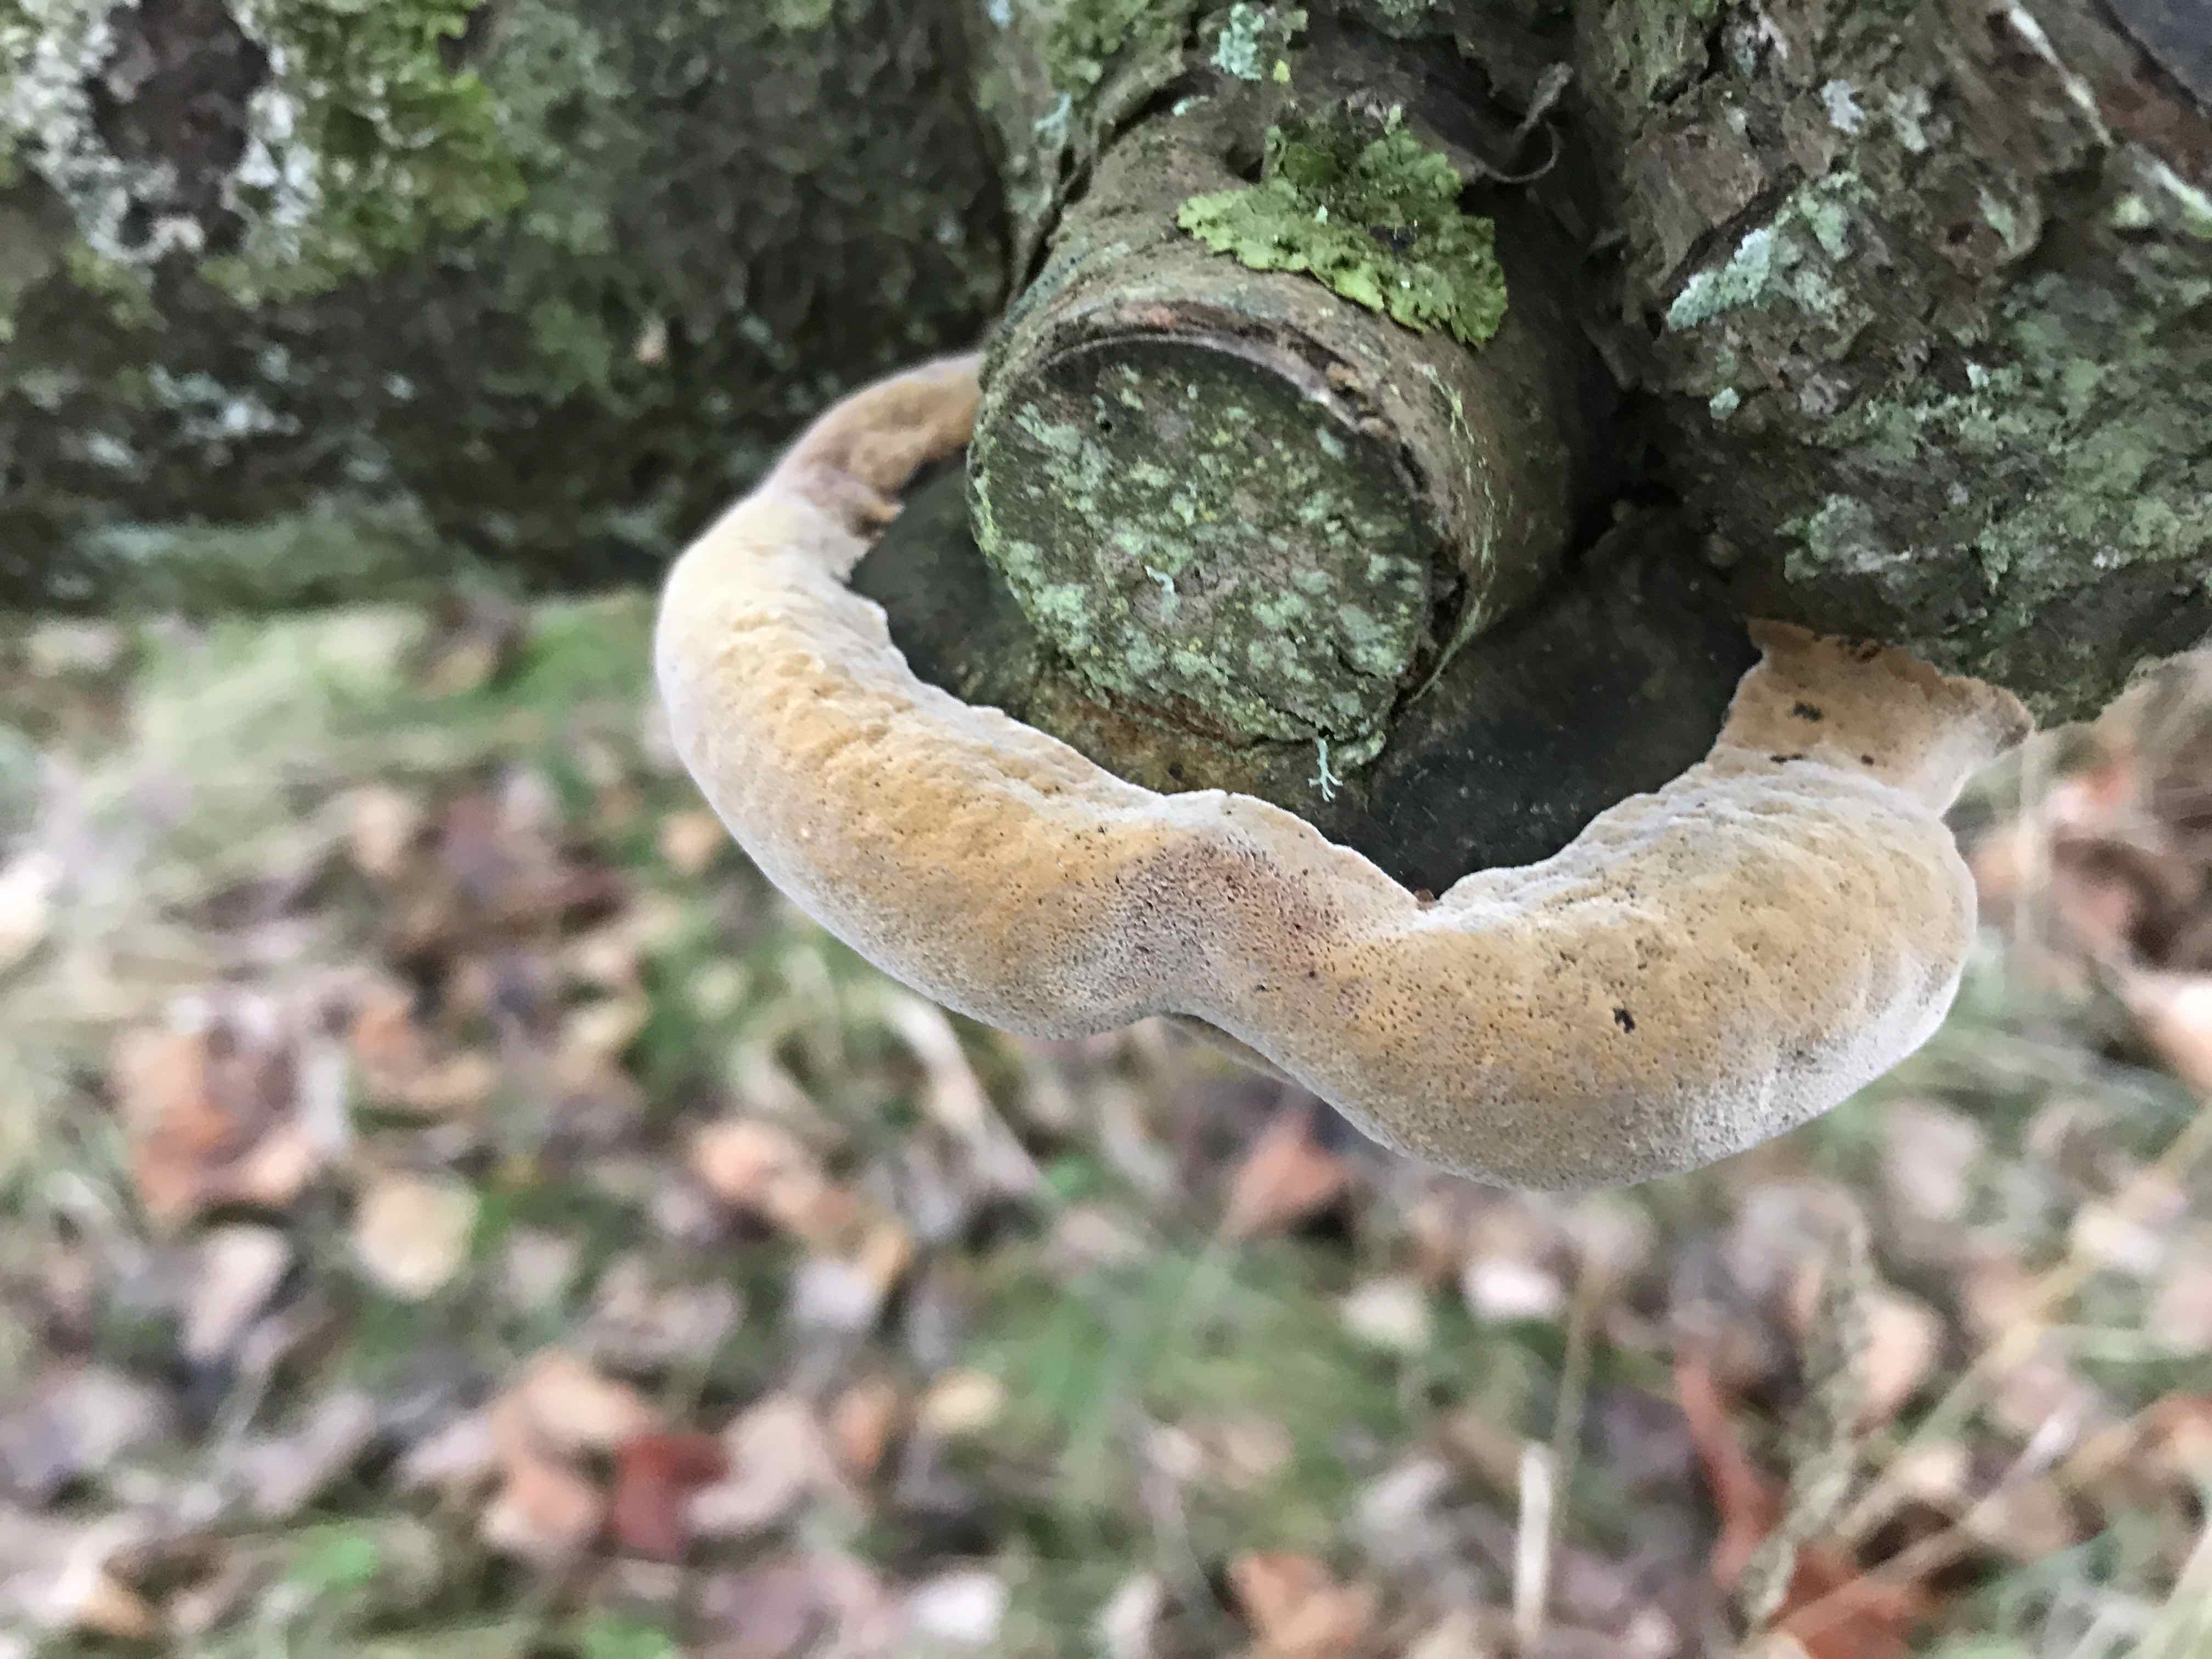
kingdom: Fungi
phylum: Basidiomycota
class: Agaricomycetes
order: Hymenochaetales
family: Hymenochaetaceae
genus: Phellinus
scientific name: Phellinus pomaceus
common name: blomme-ildporesvamp
